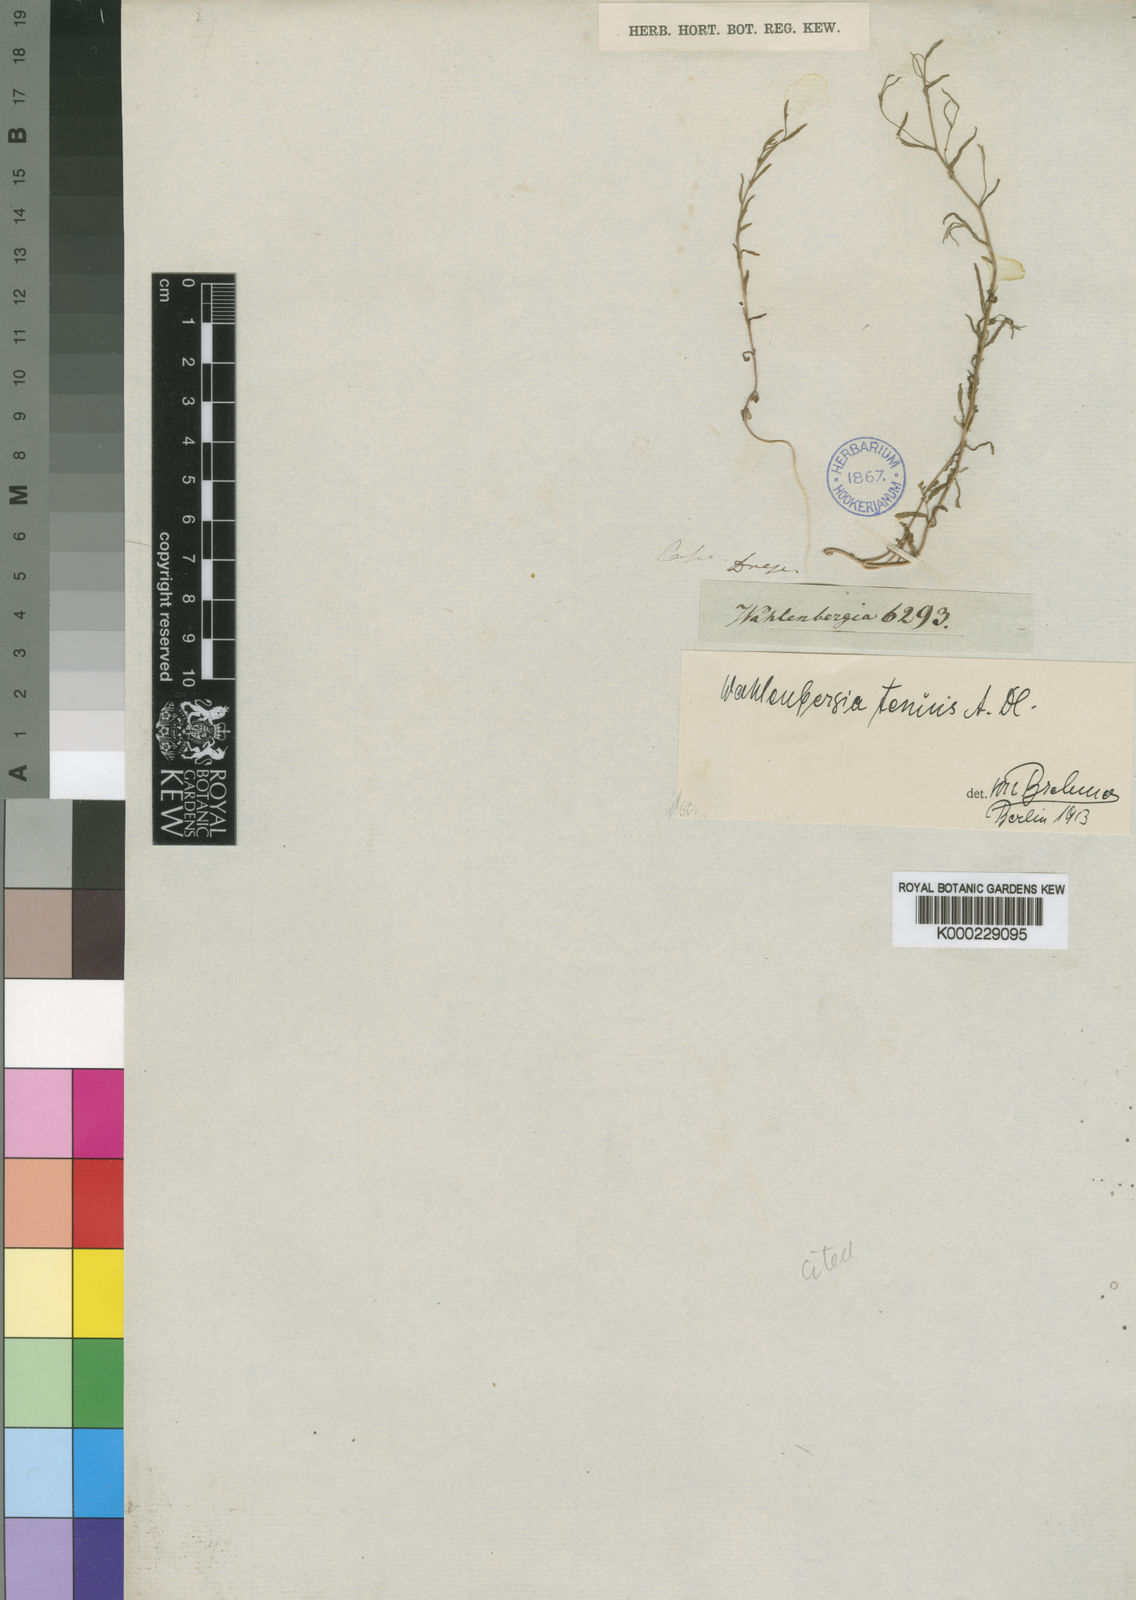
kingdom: Plantae
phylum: Tracheophyta
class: Magnoliopsida
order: Asterales
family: Campanulaceae
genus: Wahlenbergia
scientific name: Wahlenbergia tenuis
